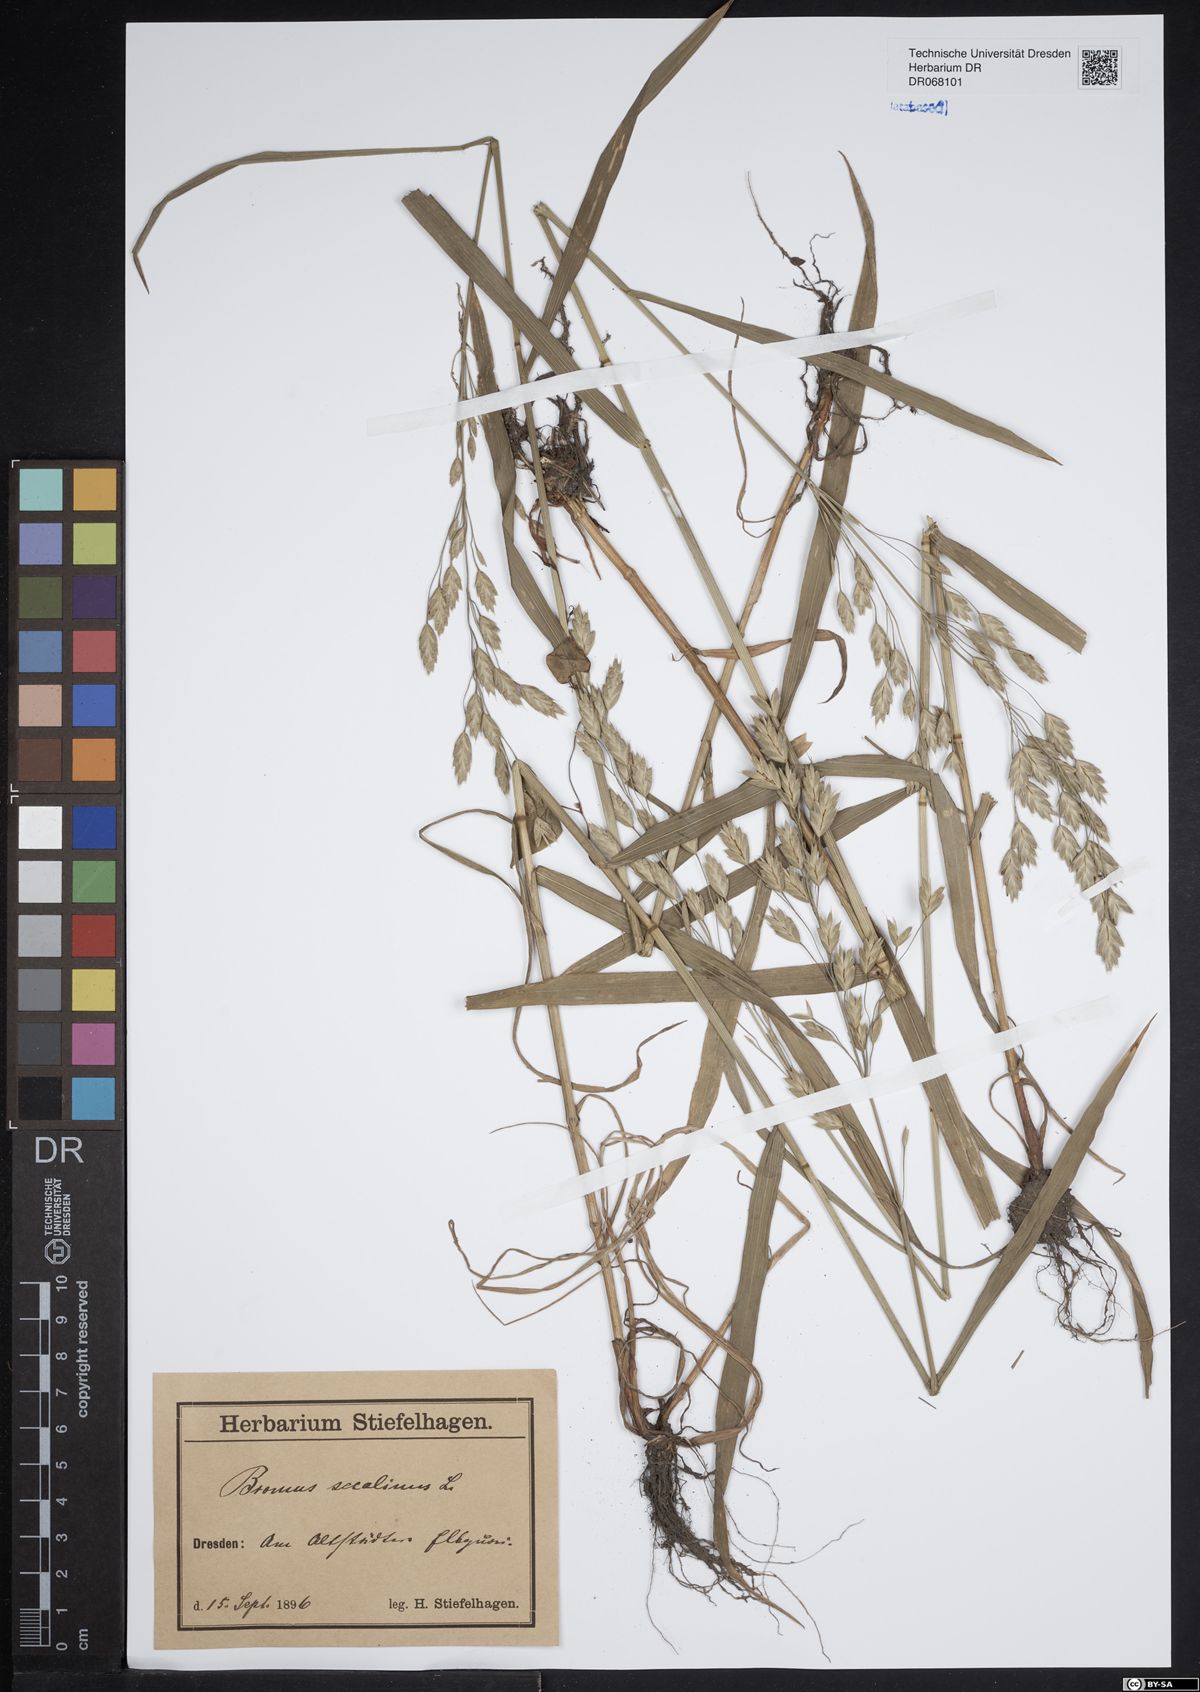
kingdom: Plantae
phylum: Tracheophyta
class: Liliopsida
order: Poales
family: Poaceae
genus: Bromus
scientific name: Bromus secalinus
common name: Rye brome
